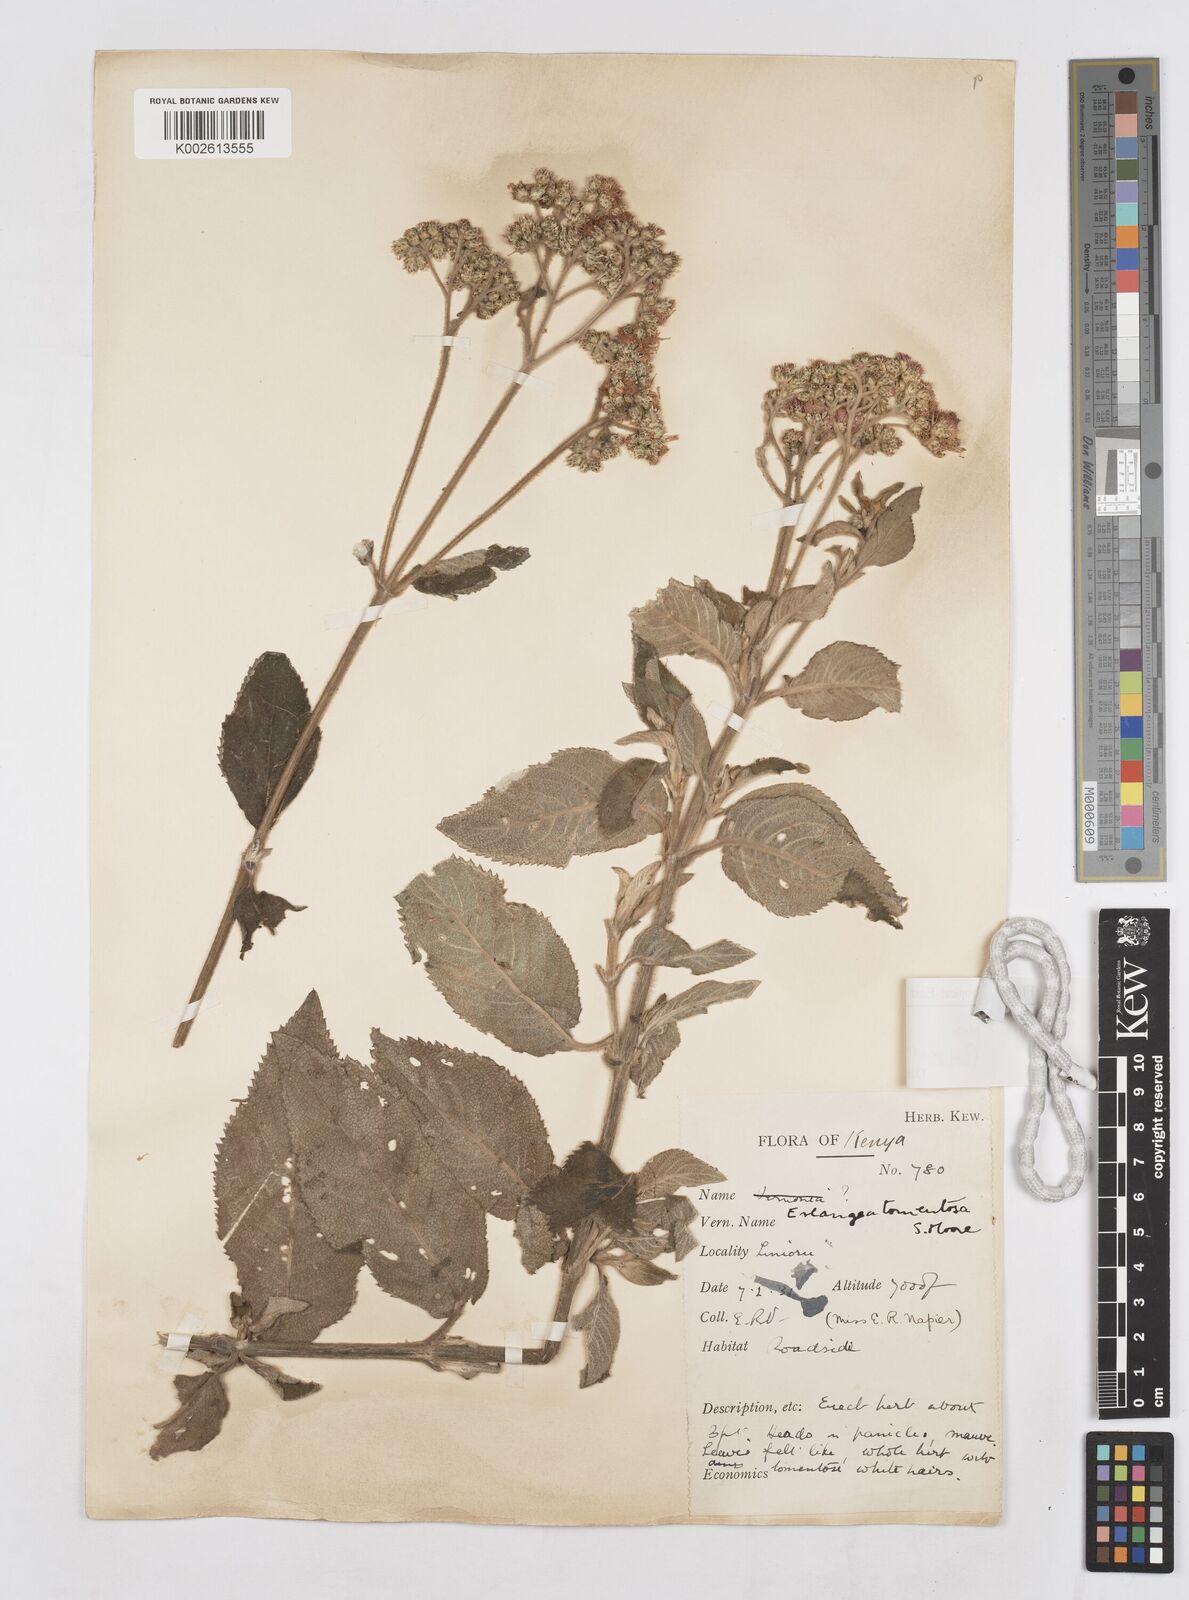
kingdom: Plantae
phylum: Tracheophyta
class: Magnoliopsida
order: Asterales
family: Asteraceae
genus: Bothriocline
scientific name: Bothriocline fusca
